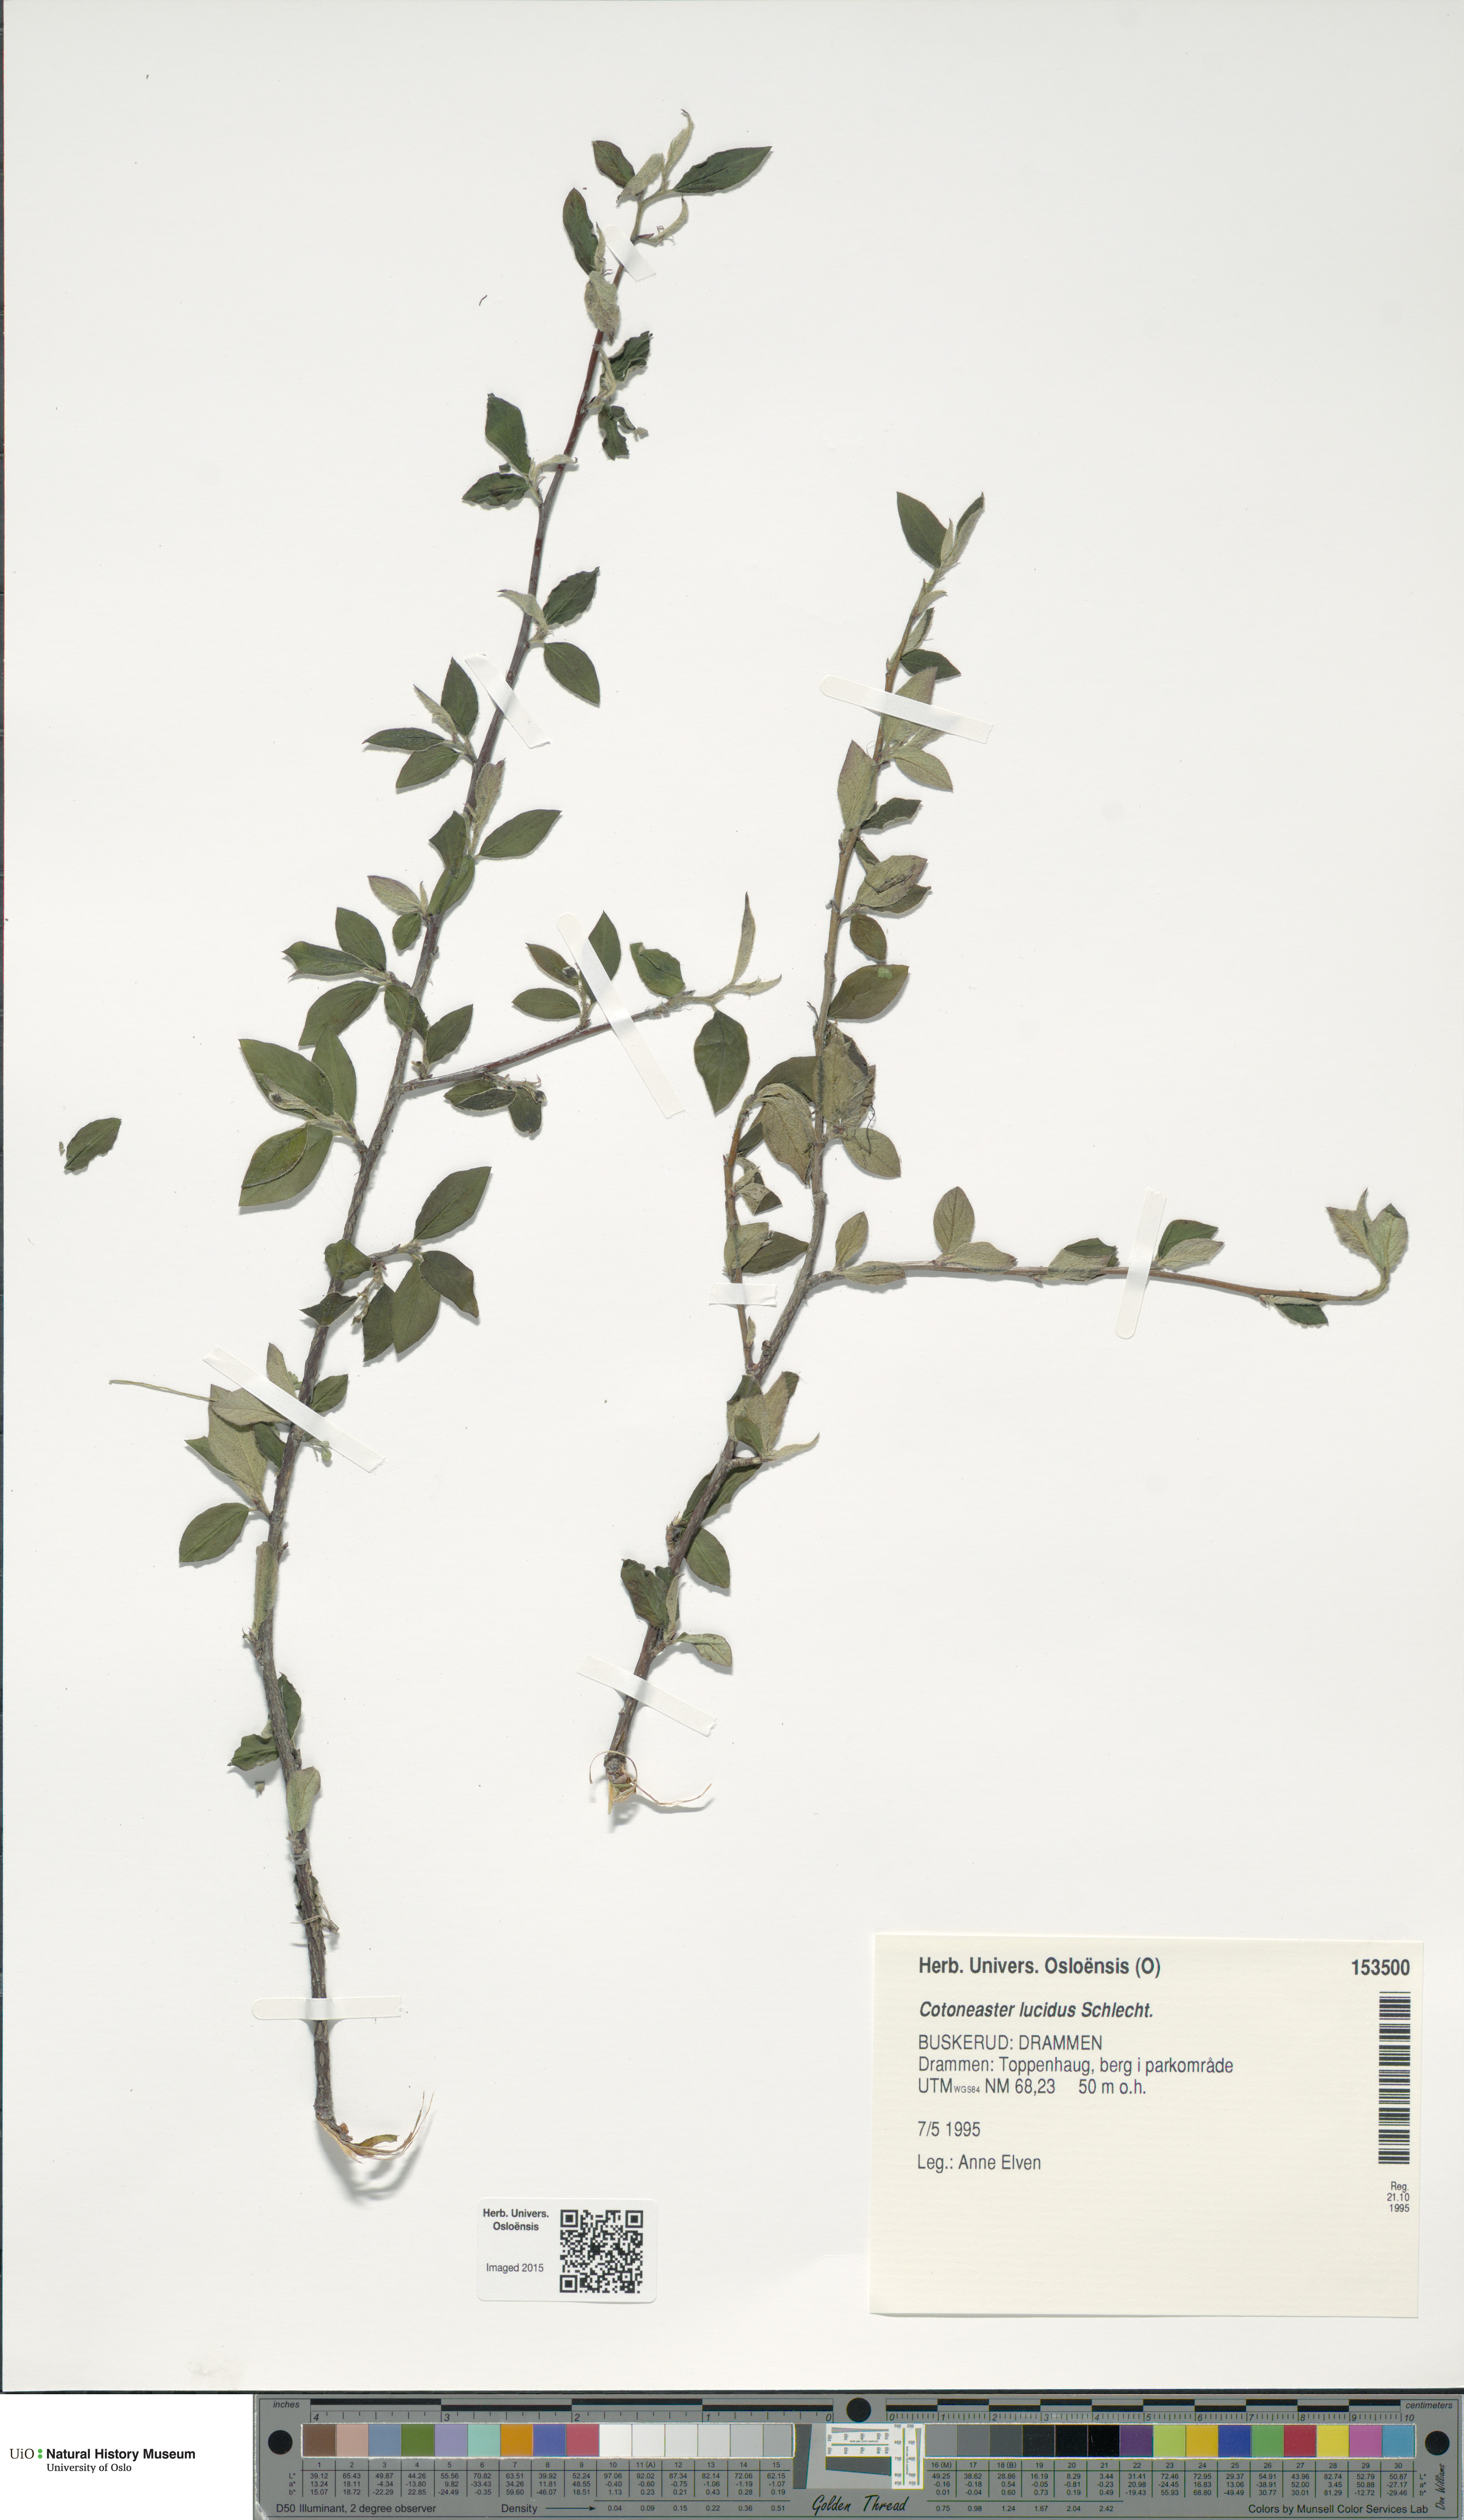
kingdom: Plantae
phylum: Tracheophyta
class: Magnoliopsida
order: Rosales
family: Rosaceae
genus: Cotoneaster
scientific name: Cotoneaster acutifolius
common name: Peking cotoneaster
